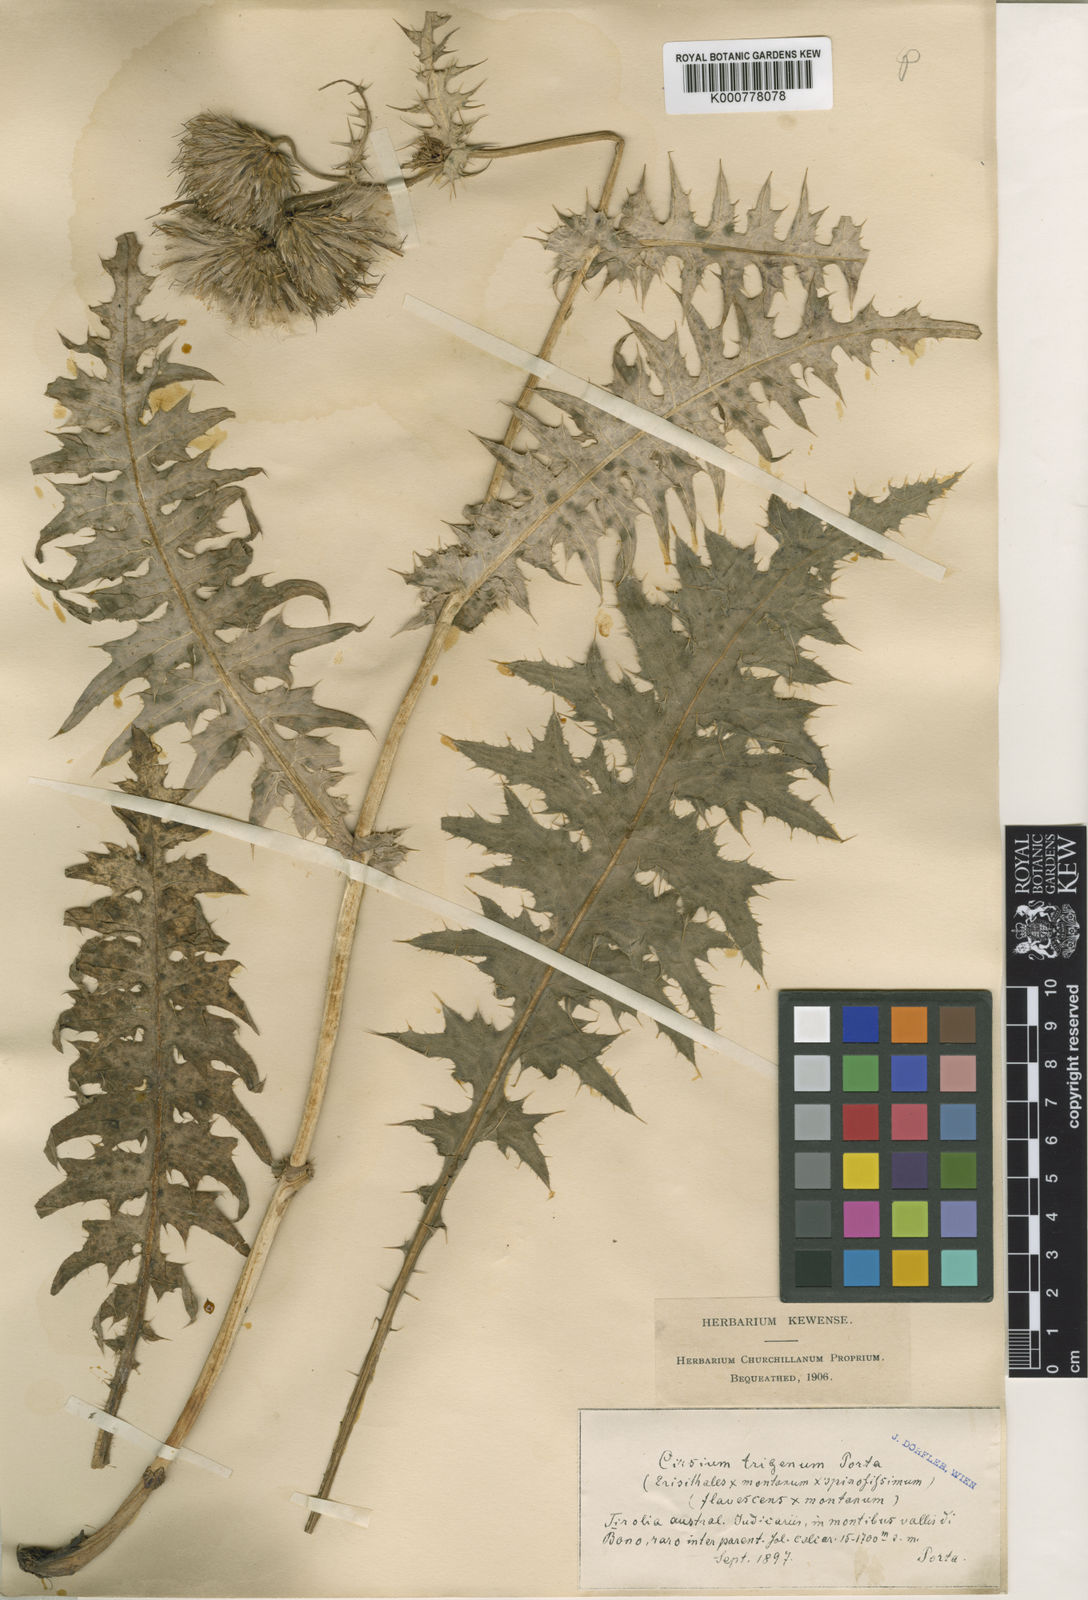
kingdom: Plantae
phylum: Tracheophyta
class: Magnoliopsida
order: Asterales
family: Asteraceae
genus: Cirsium
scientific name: Cirsium erisithales
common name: Yellow thistle
